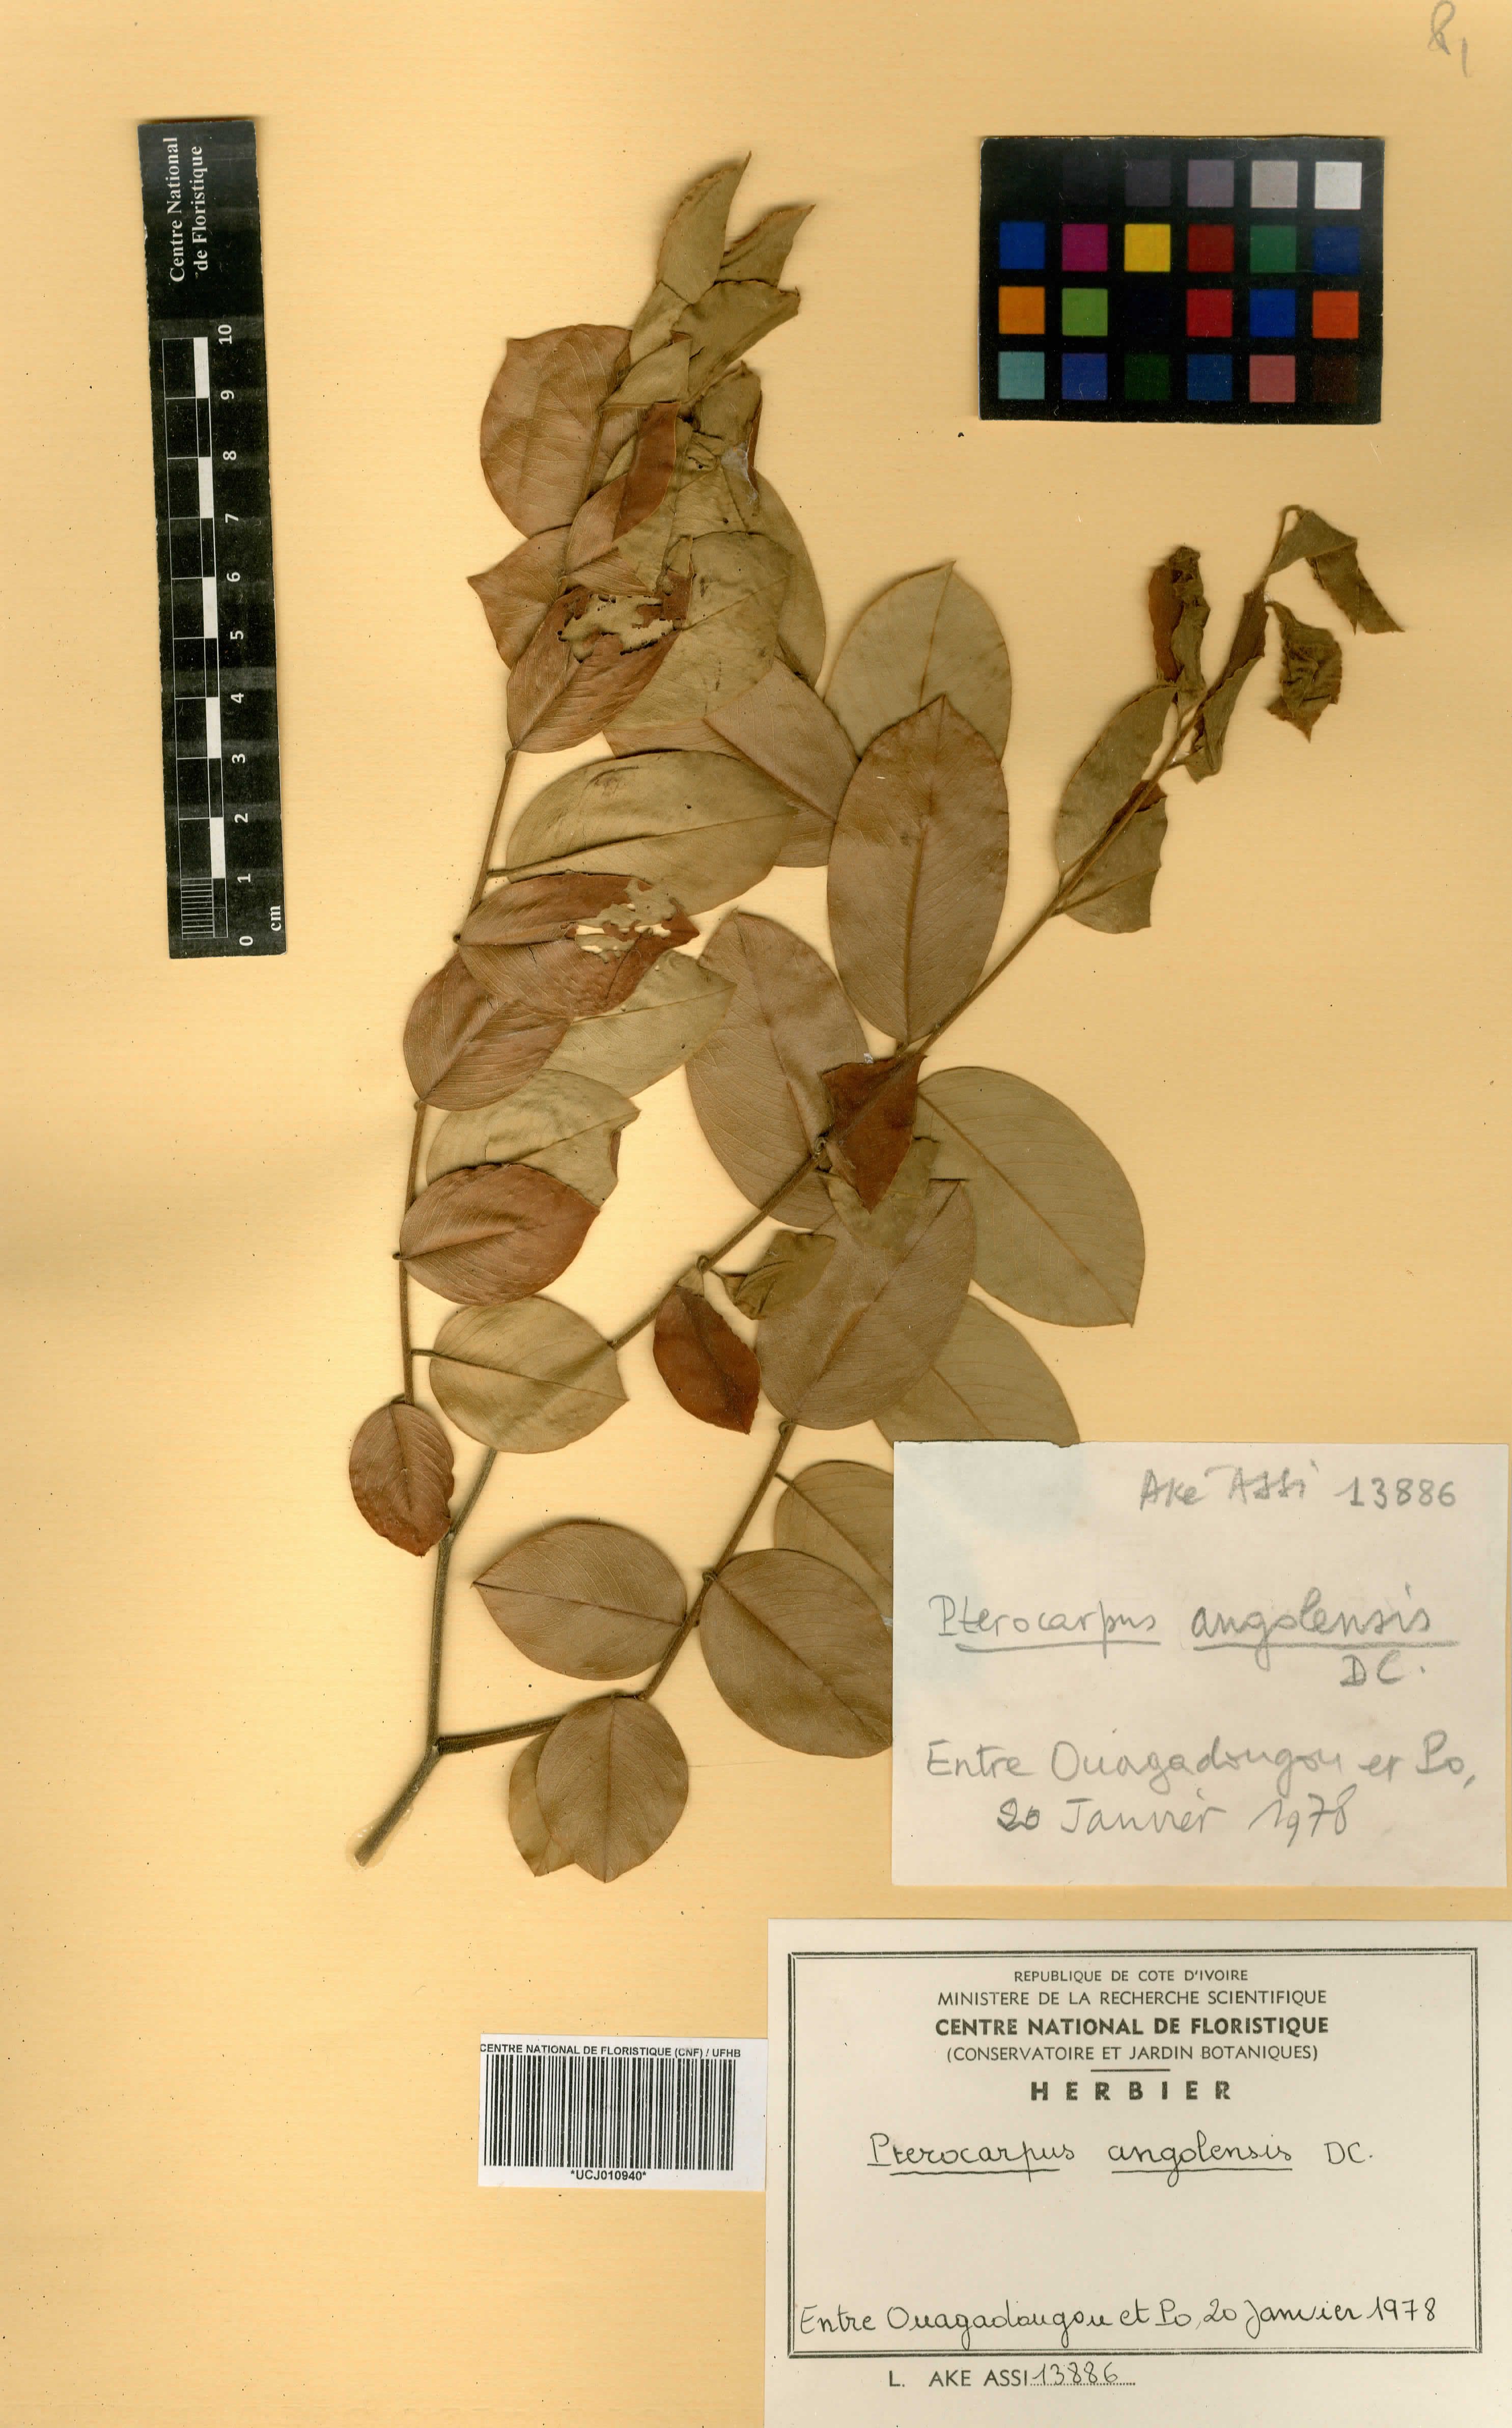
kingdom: Plantae
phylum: Tracheophyta
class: Magnoliopsida
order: Fabales
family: Fabaceae
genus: Pterocarpus
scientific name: Pterocarpus angolensis
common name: Bloodwood tree
